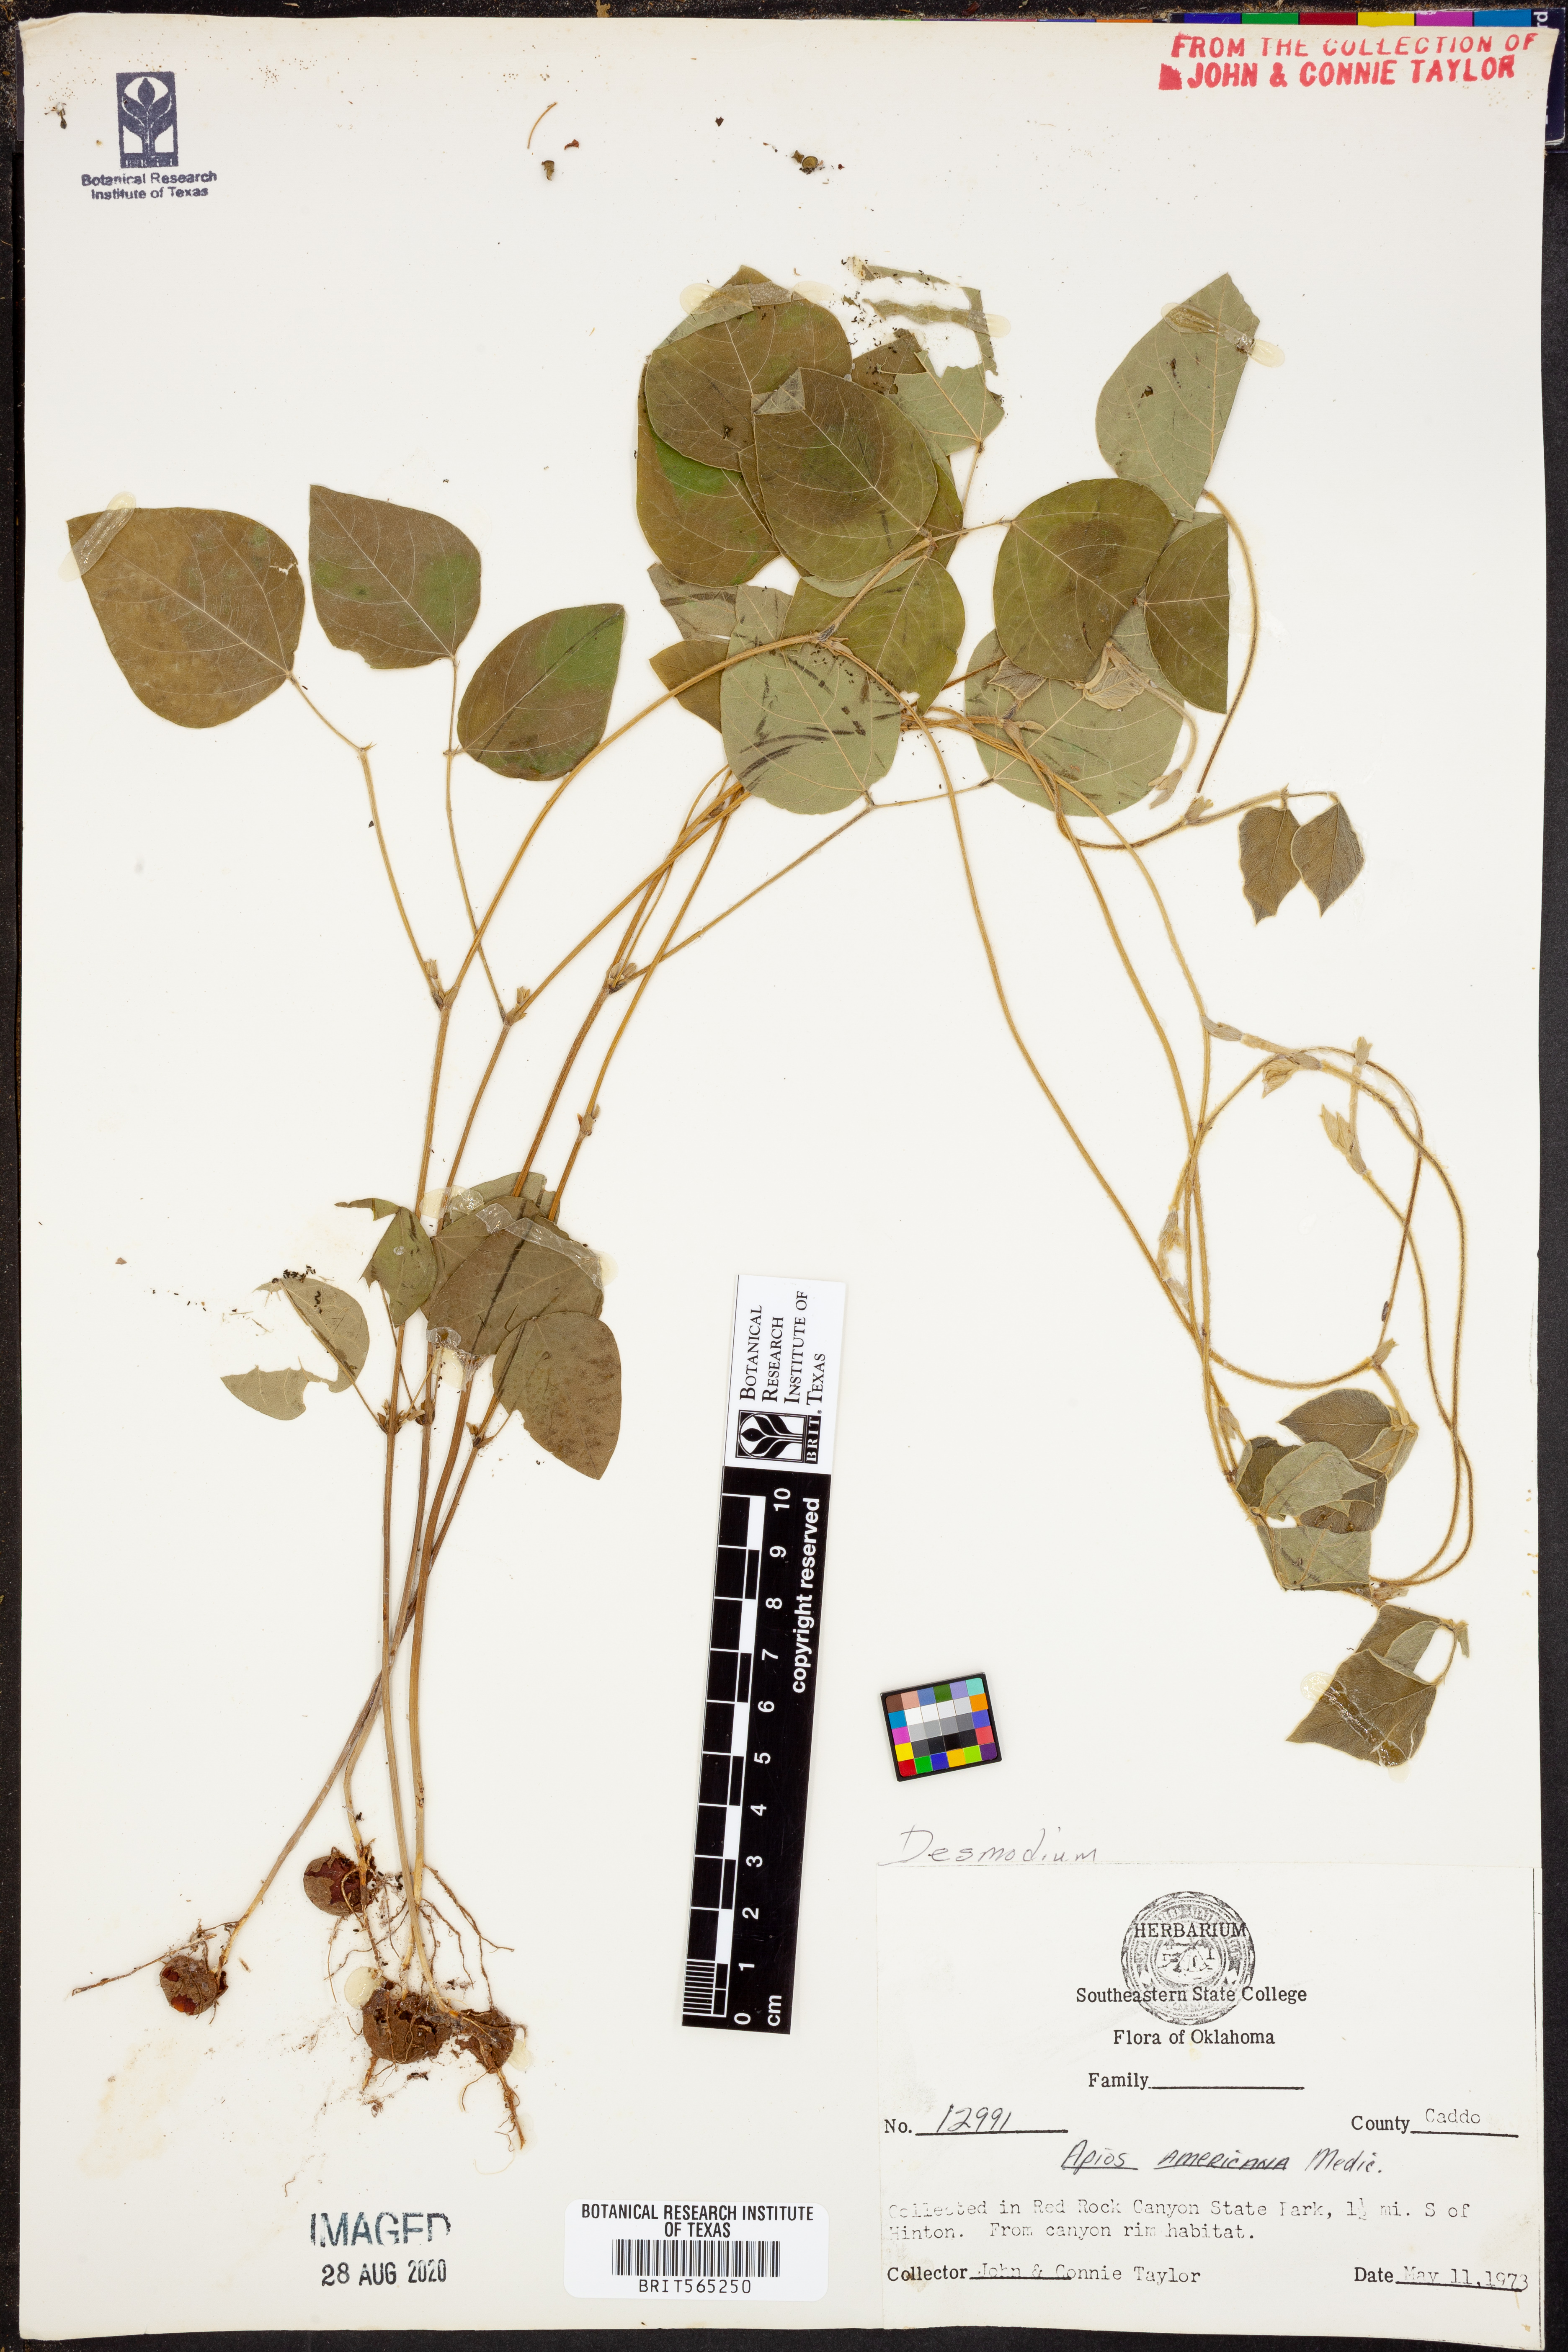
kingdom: Plantae
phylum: Tracheophyta
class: Magnoliopsida
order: Fabales
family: Fabaceae
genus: Desmodium
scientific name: Desmodium
